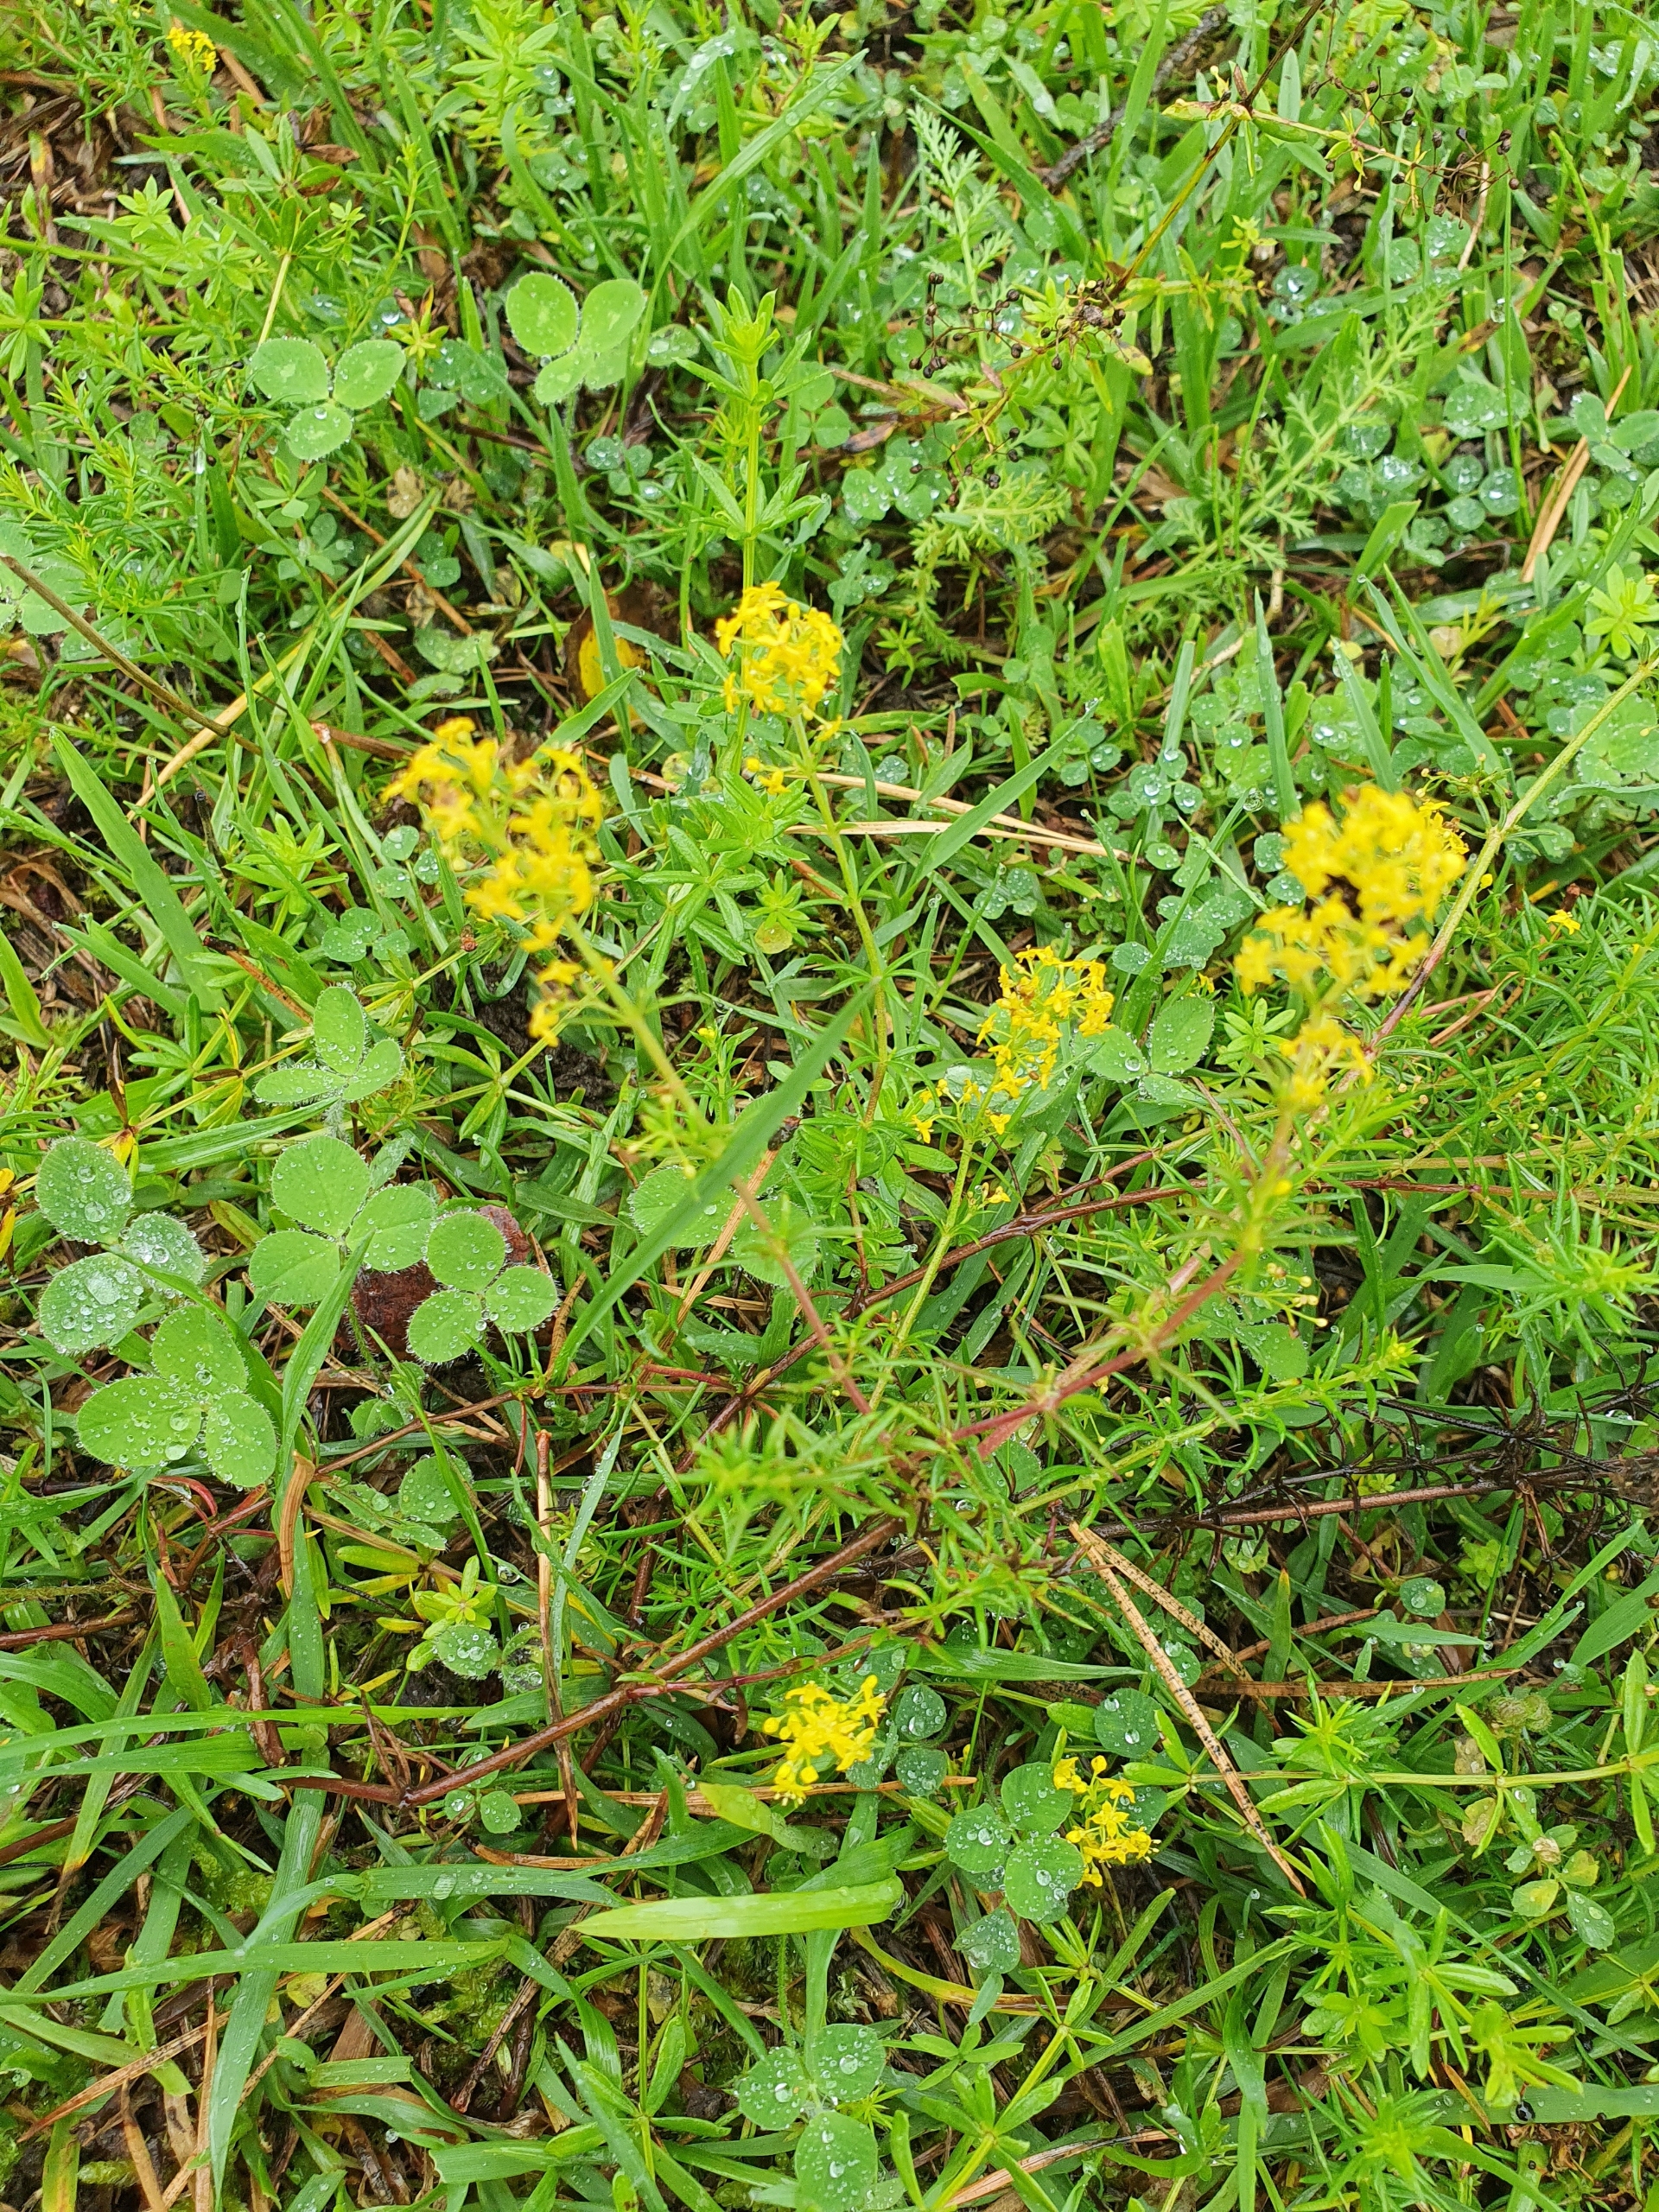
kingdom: Plantae
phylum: Tracheophyta
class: Magnoliopsida
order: Gentianales
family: Rubiaceae
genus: Galium
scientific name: Galium verum
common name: Gul snerre
